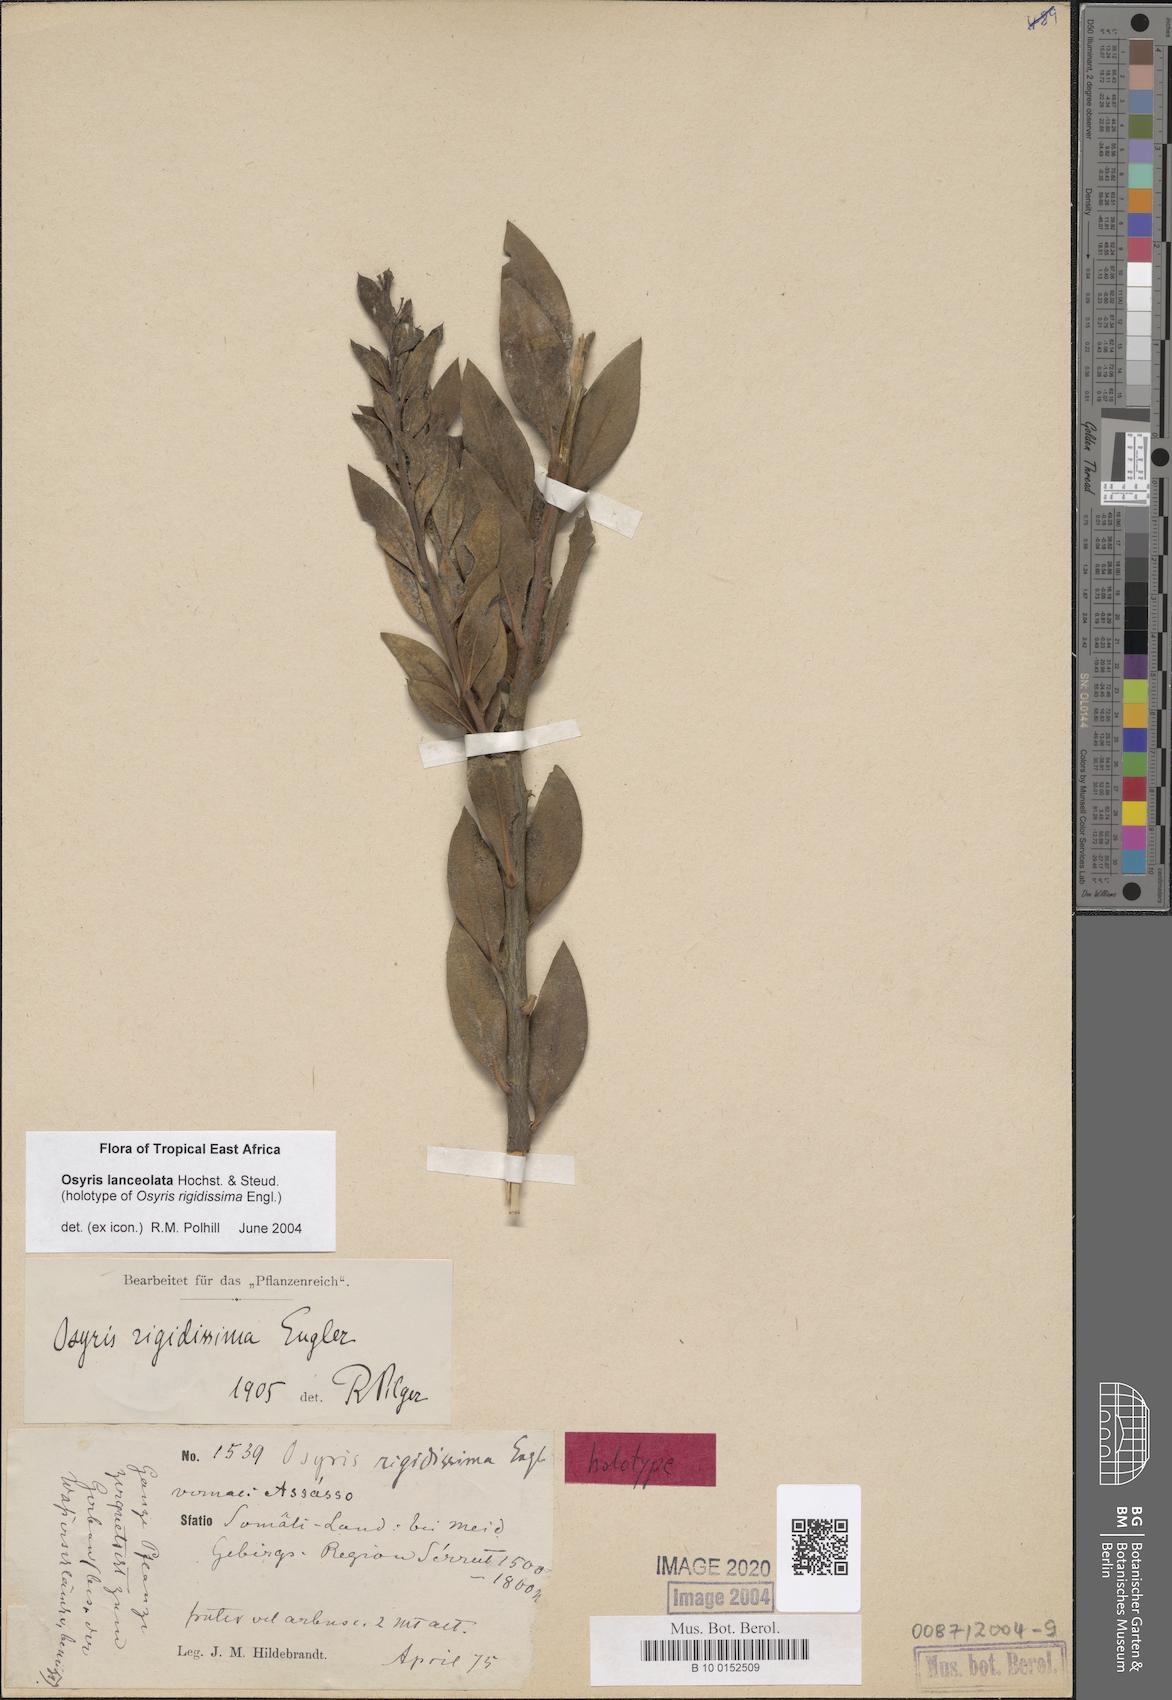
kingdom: Plantae
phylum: Tracheophyta
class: Magnoliopsida
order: Santalales
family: Santalaceae
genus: Osyris
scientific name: Osyris lanceolata
